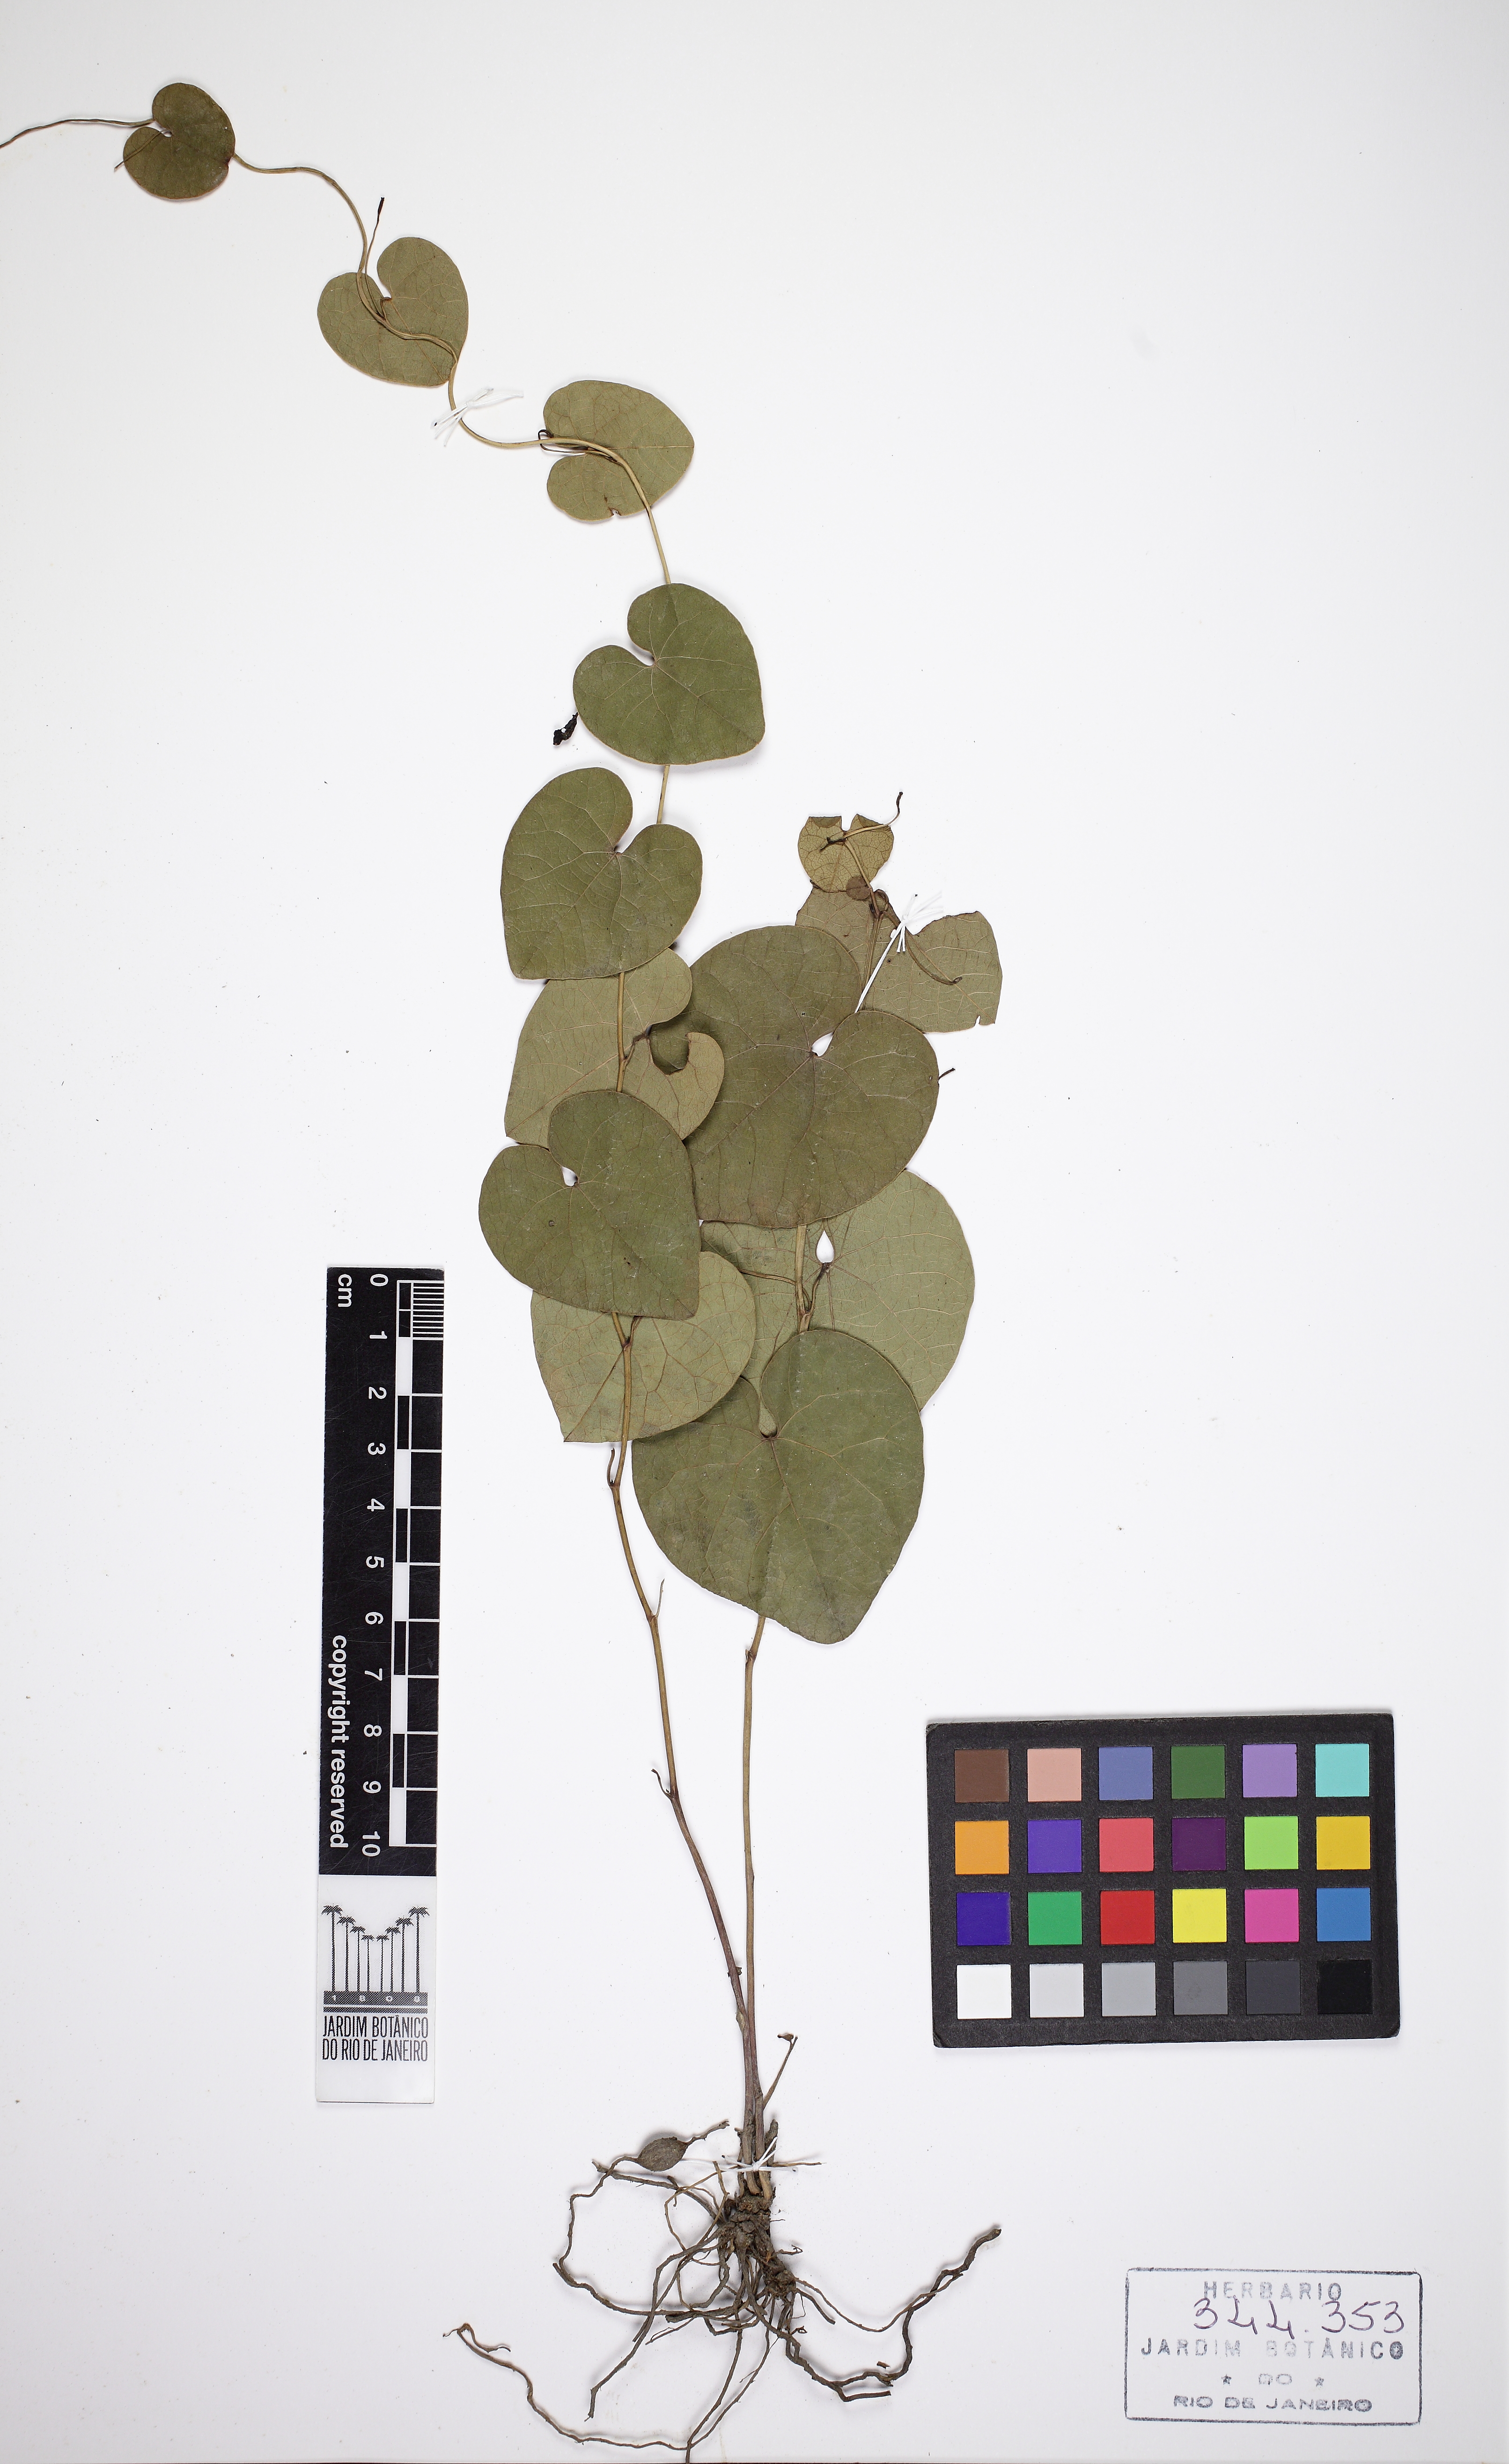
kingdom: Plantae
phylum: Tracheophyta
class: Magnoliopsida
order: Piperales
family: Aristolochiaceae
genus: Aristolochia
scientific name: Aristolochia nummularifolia
